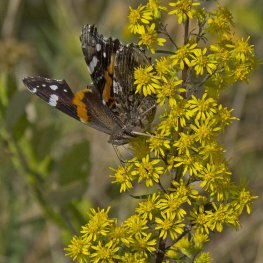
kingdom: Animalia
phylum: Arthropoda
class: Insecta
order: Lepidoptera
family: Nymphalidae
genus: Vanessa
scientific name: Vanessa atalanta
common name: Red Admiral
